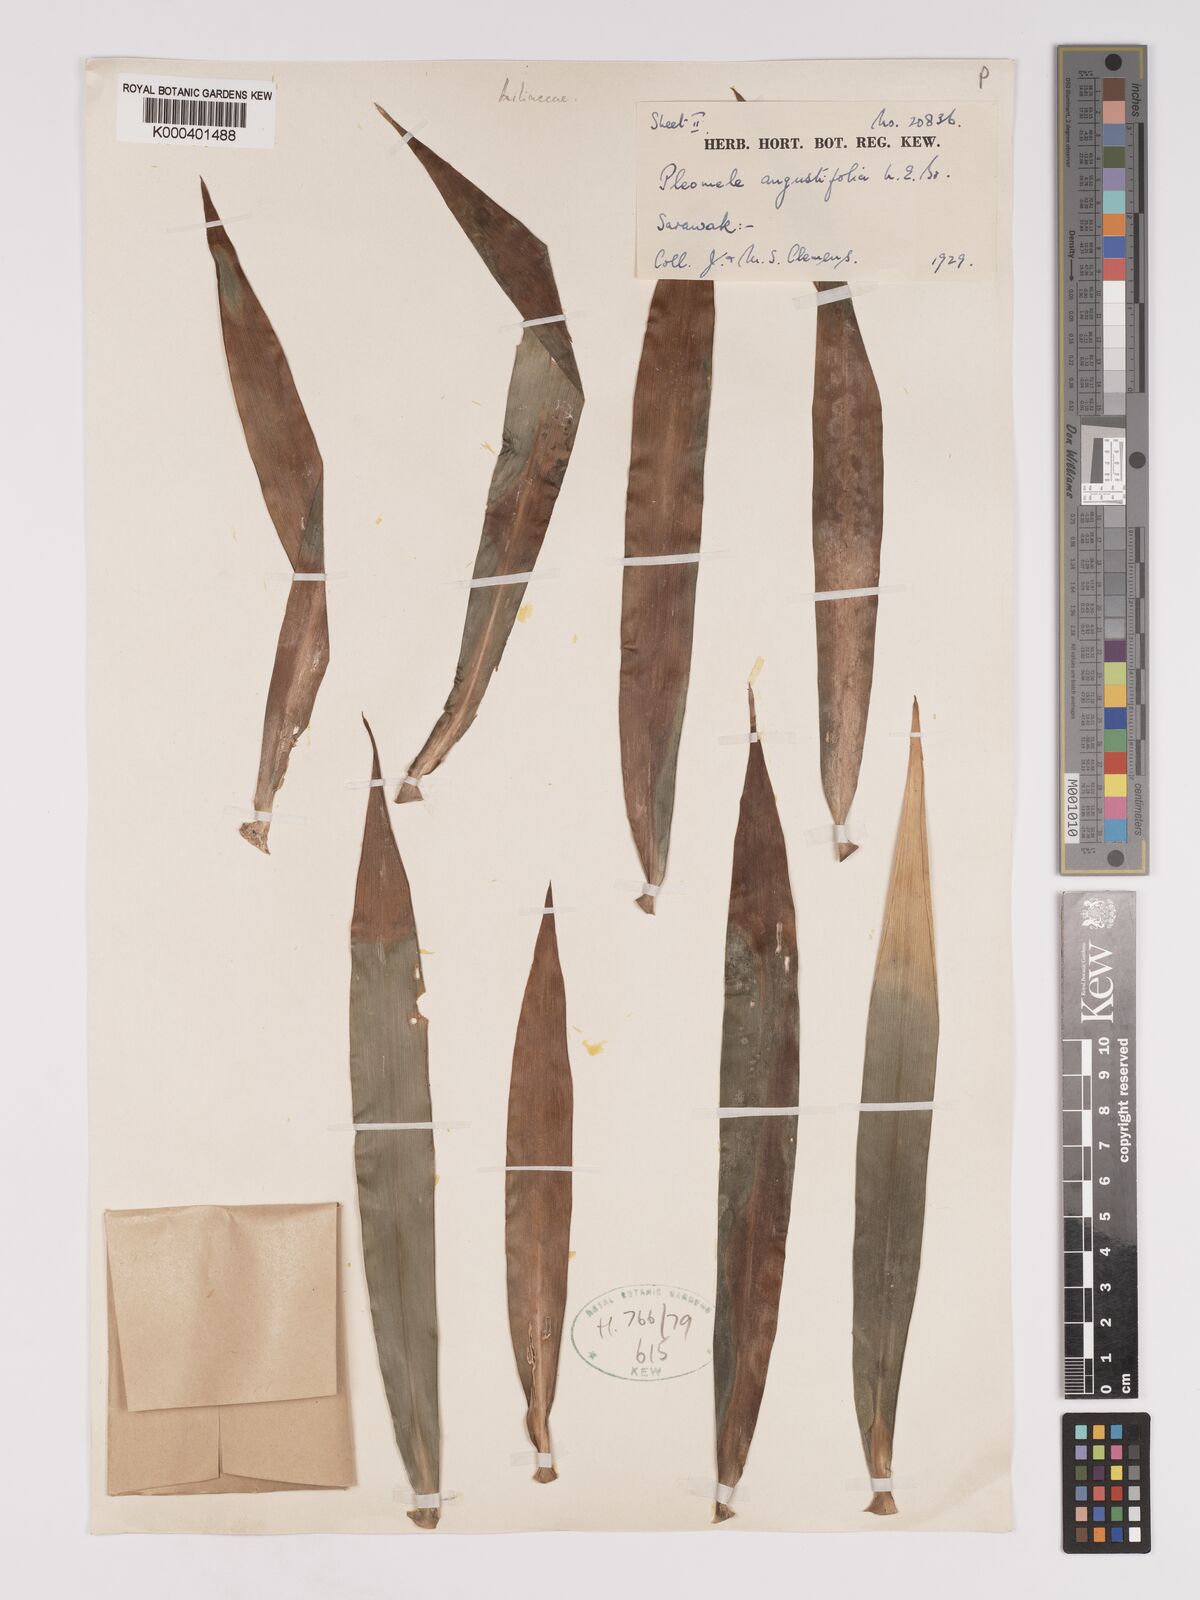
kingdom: Plantae
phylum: Tracheophyta
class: Liliopsida
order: Asparagales
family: Asparagaceae
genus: Dracaena
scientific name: Dracaena angustifolia
